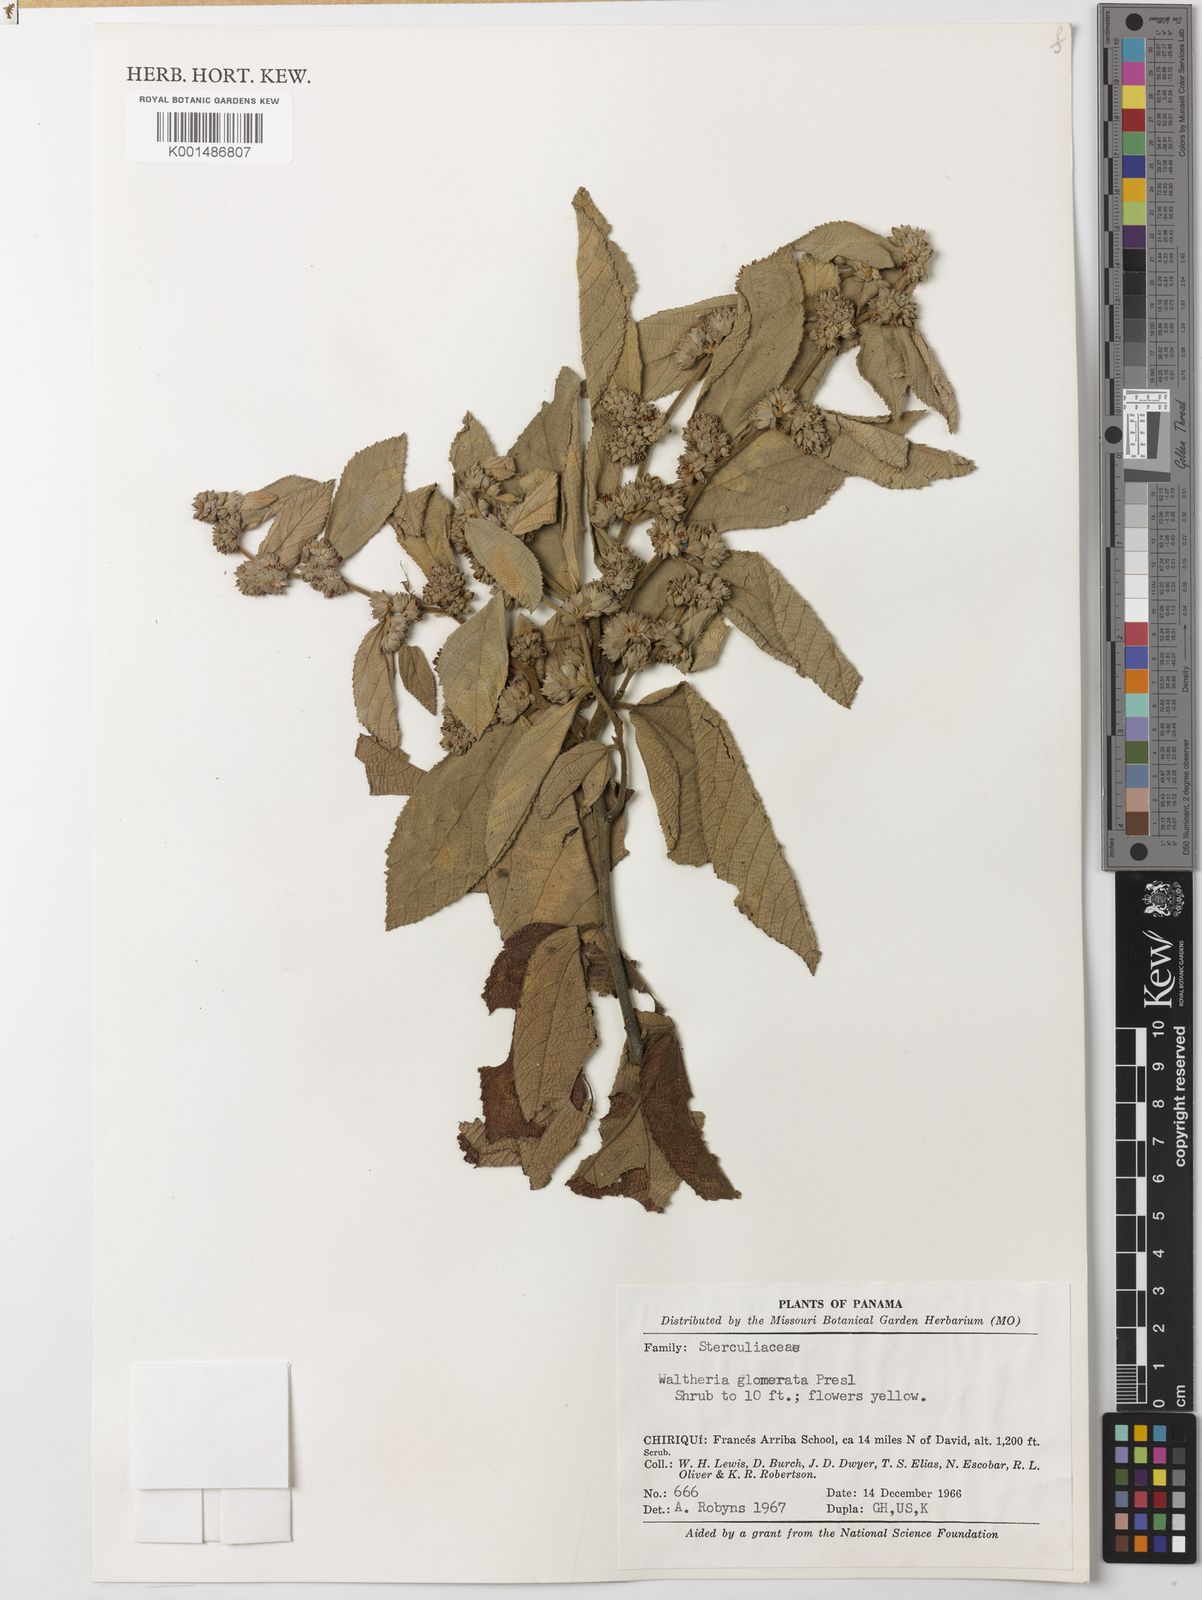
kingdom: Plantae
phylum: Tracheophyta
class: Magnoliopsida
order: Malvales
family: Malvaceae
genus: Waltheria
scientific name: Waltheria glomerata
